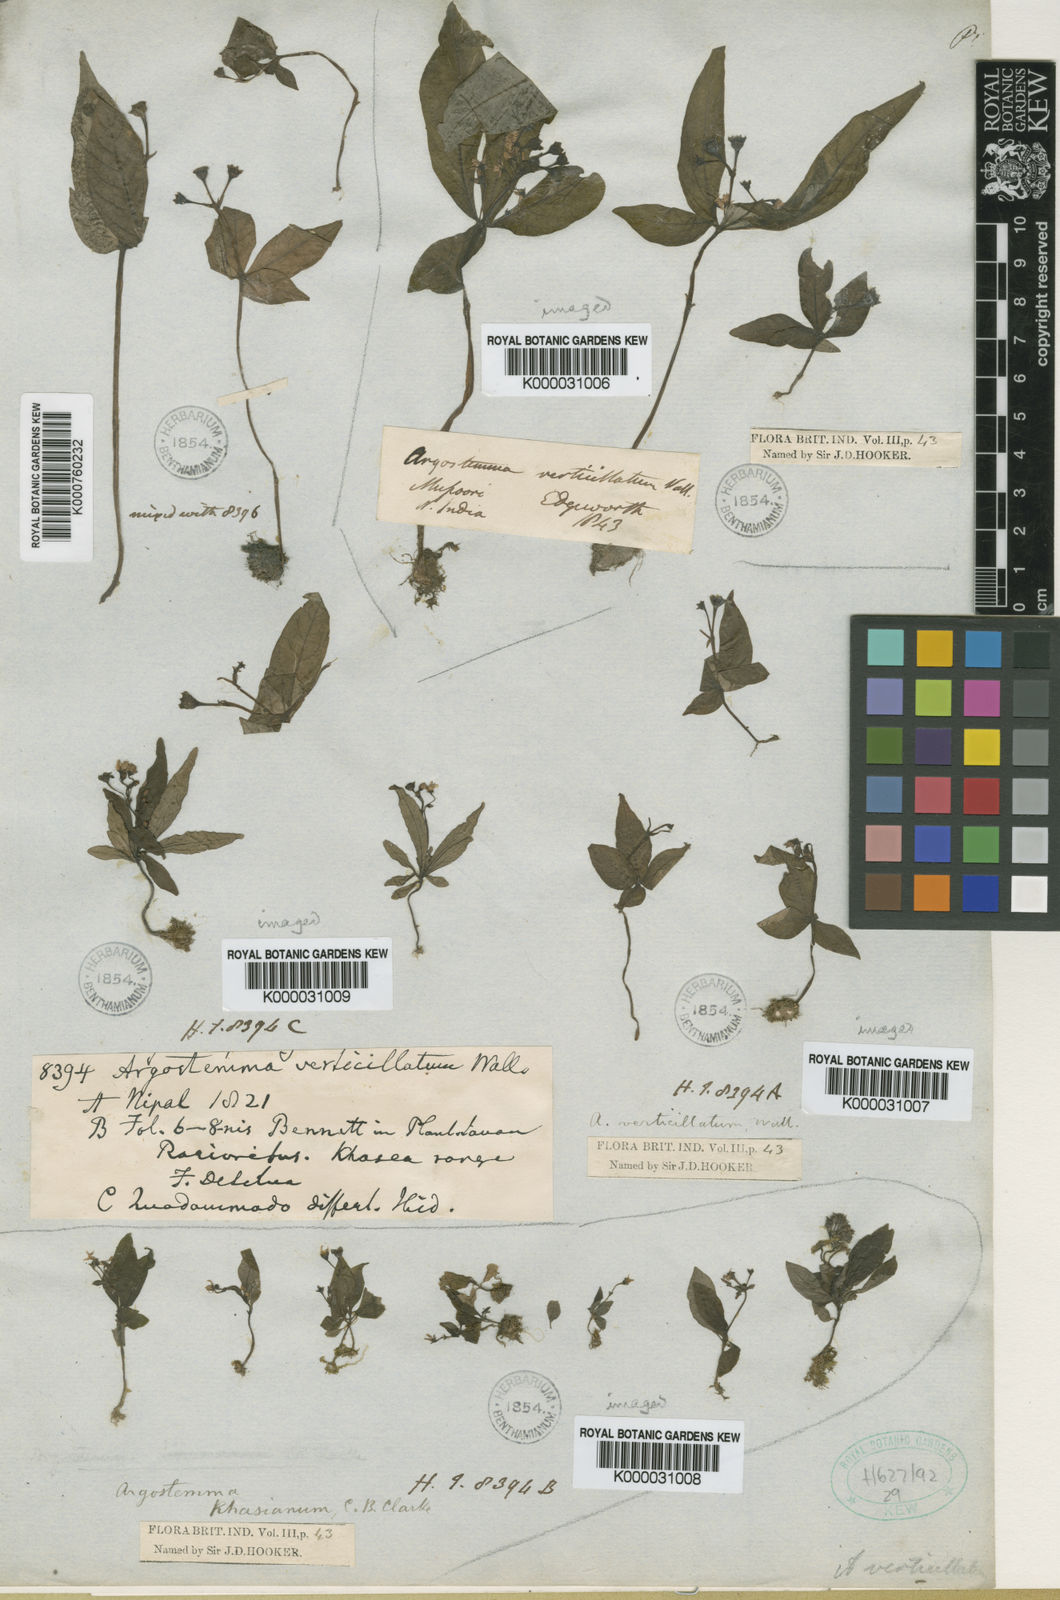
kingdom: Plantae
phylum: Tracheophyta
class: Magnoliopsida
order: Gentianales
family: Rubiaceae
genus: Argostemma
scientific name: Argostemma verticillatum
